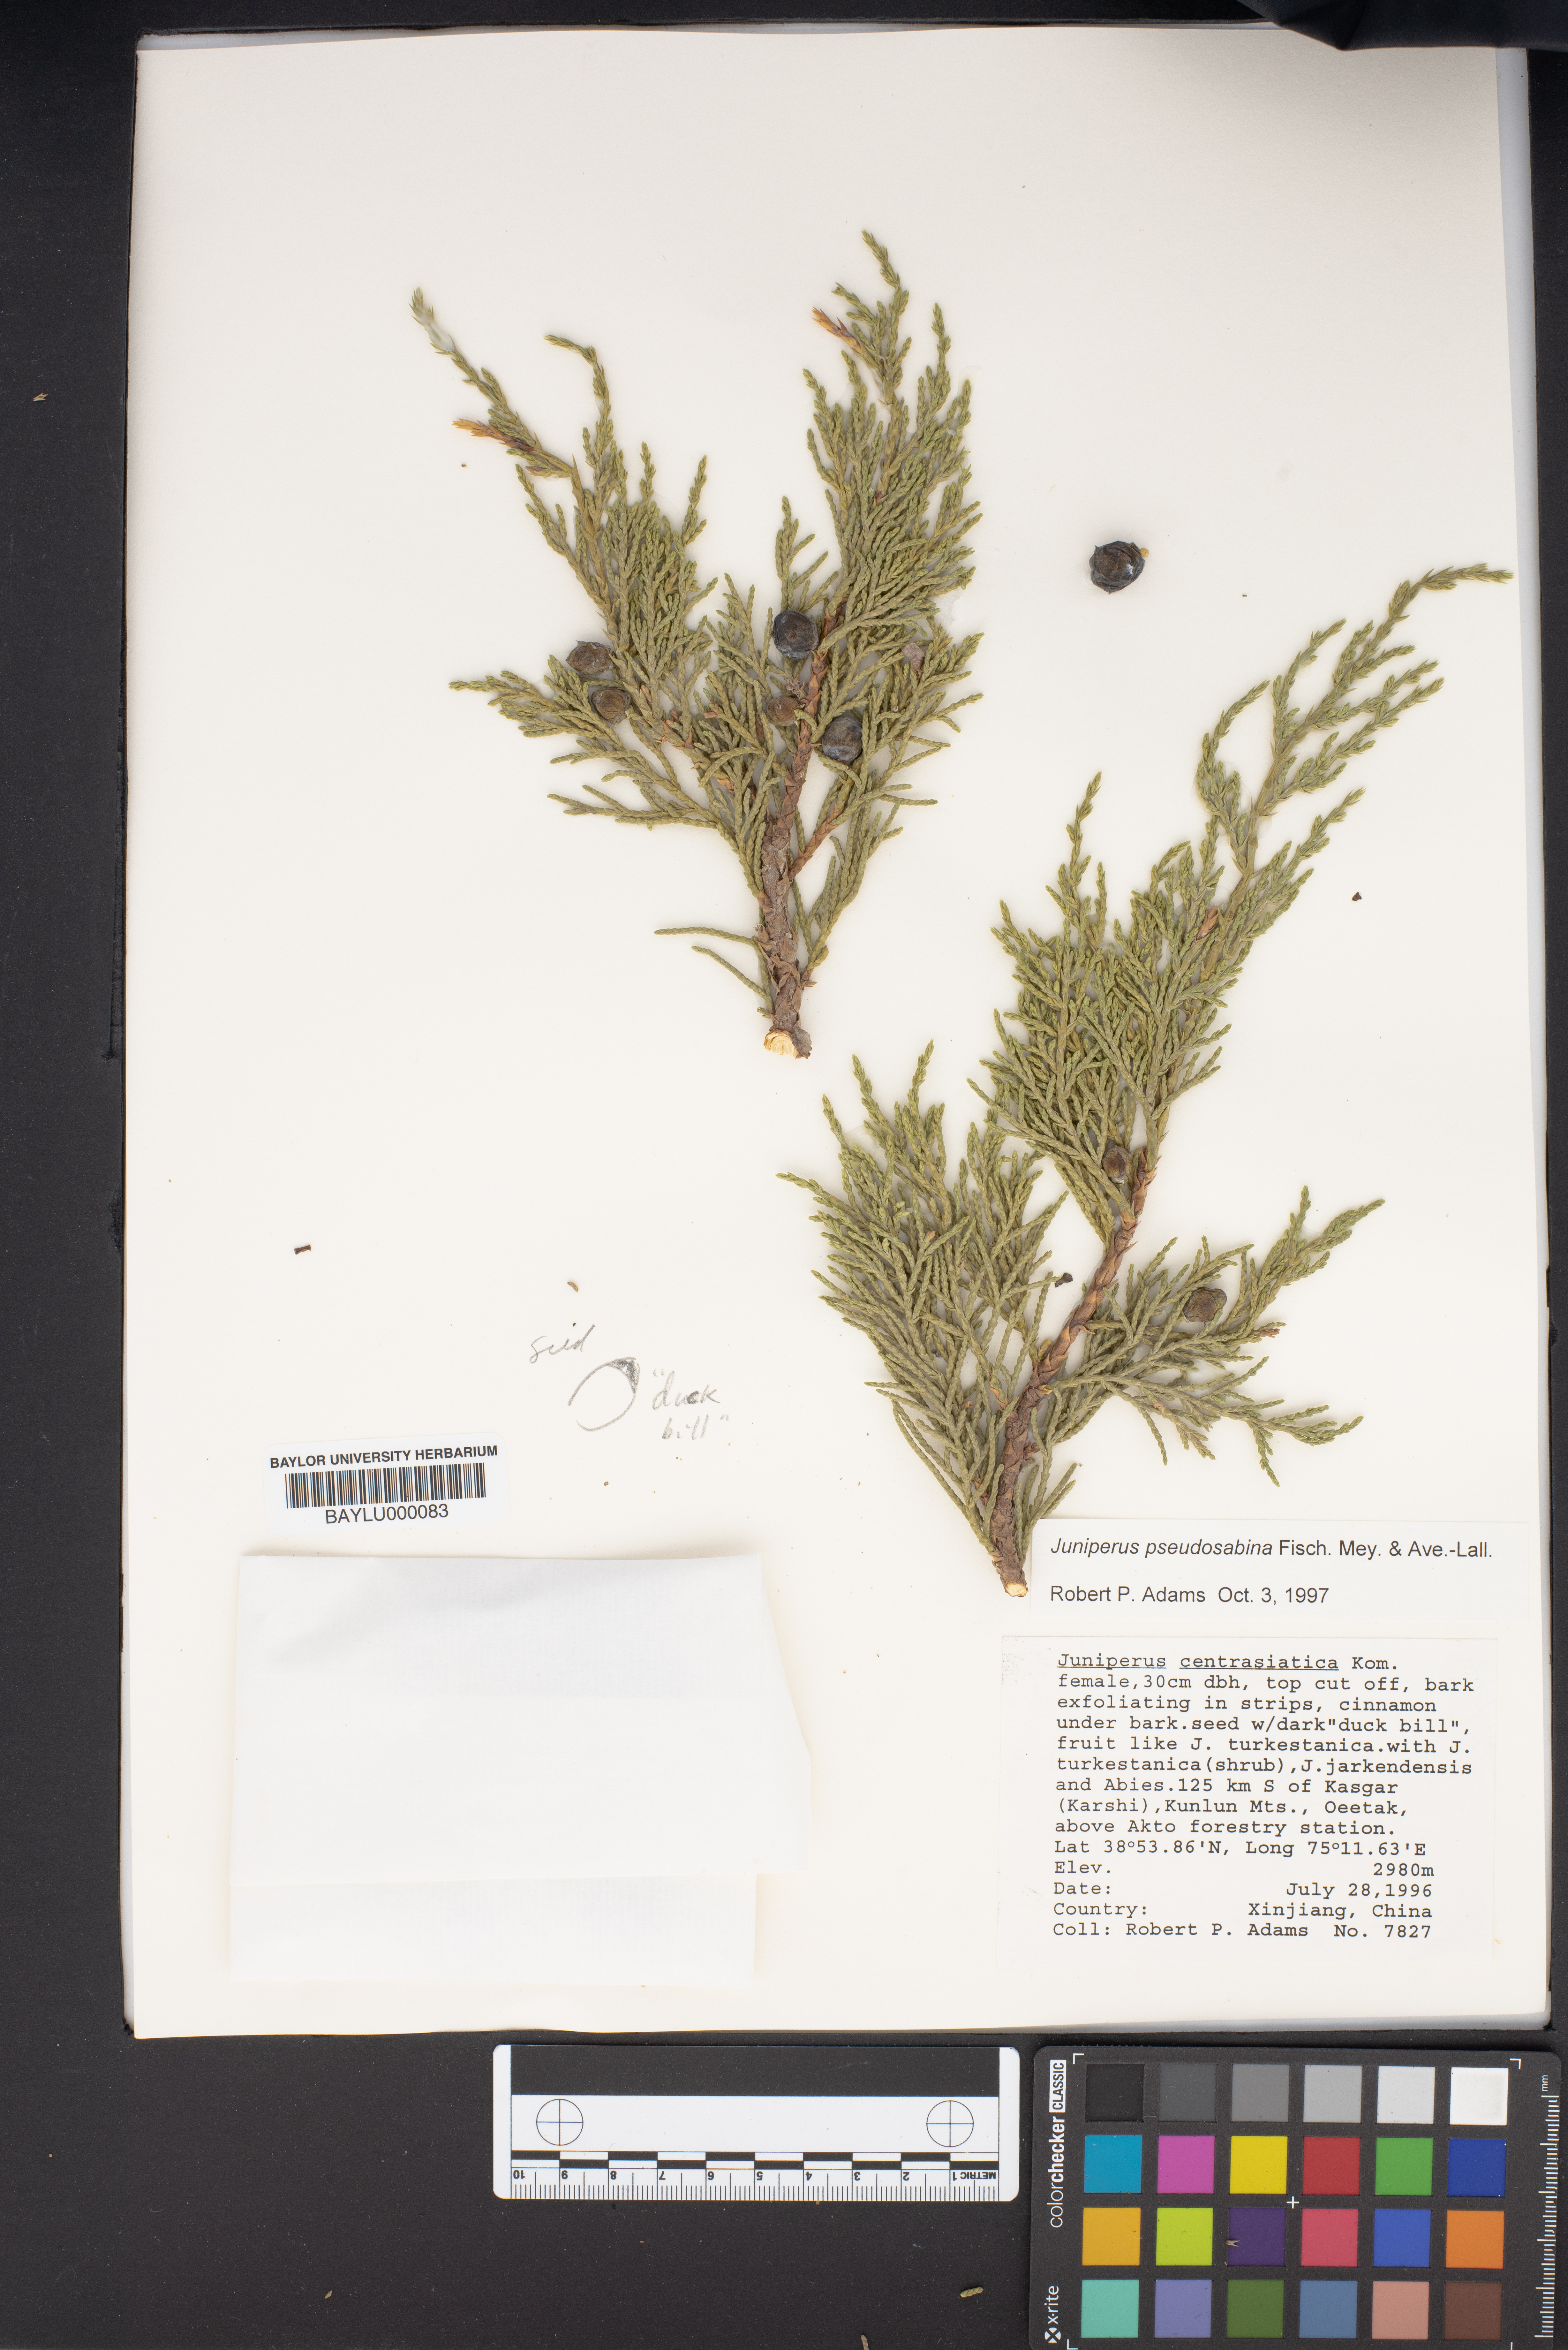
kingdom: Plantae
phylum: Tracheophyta
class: Pinopsida
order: Pinales
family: Cupressaceae
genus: Juniperus
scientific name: Juniperus pseudosabina
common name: Turkestan juniper
